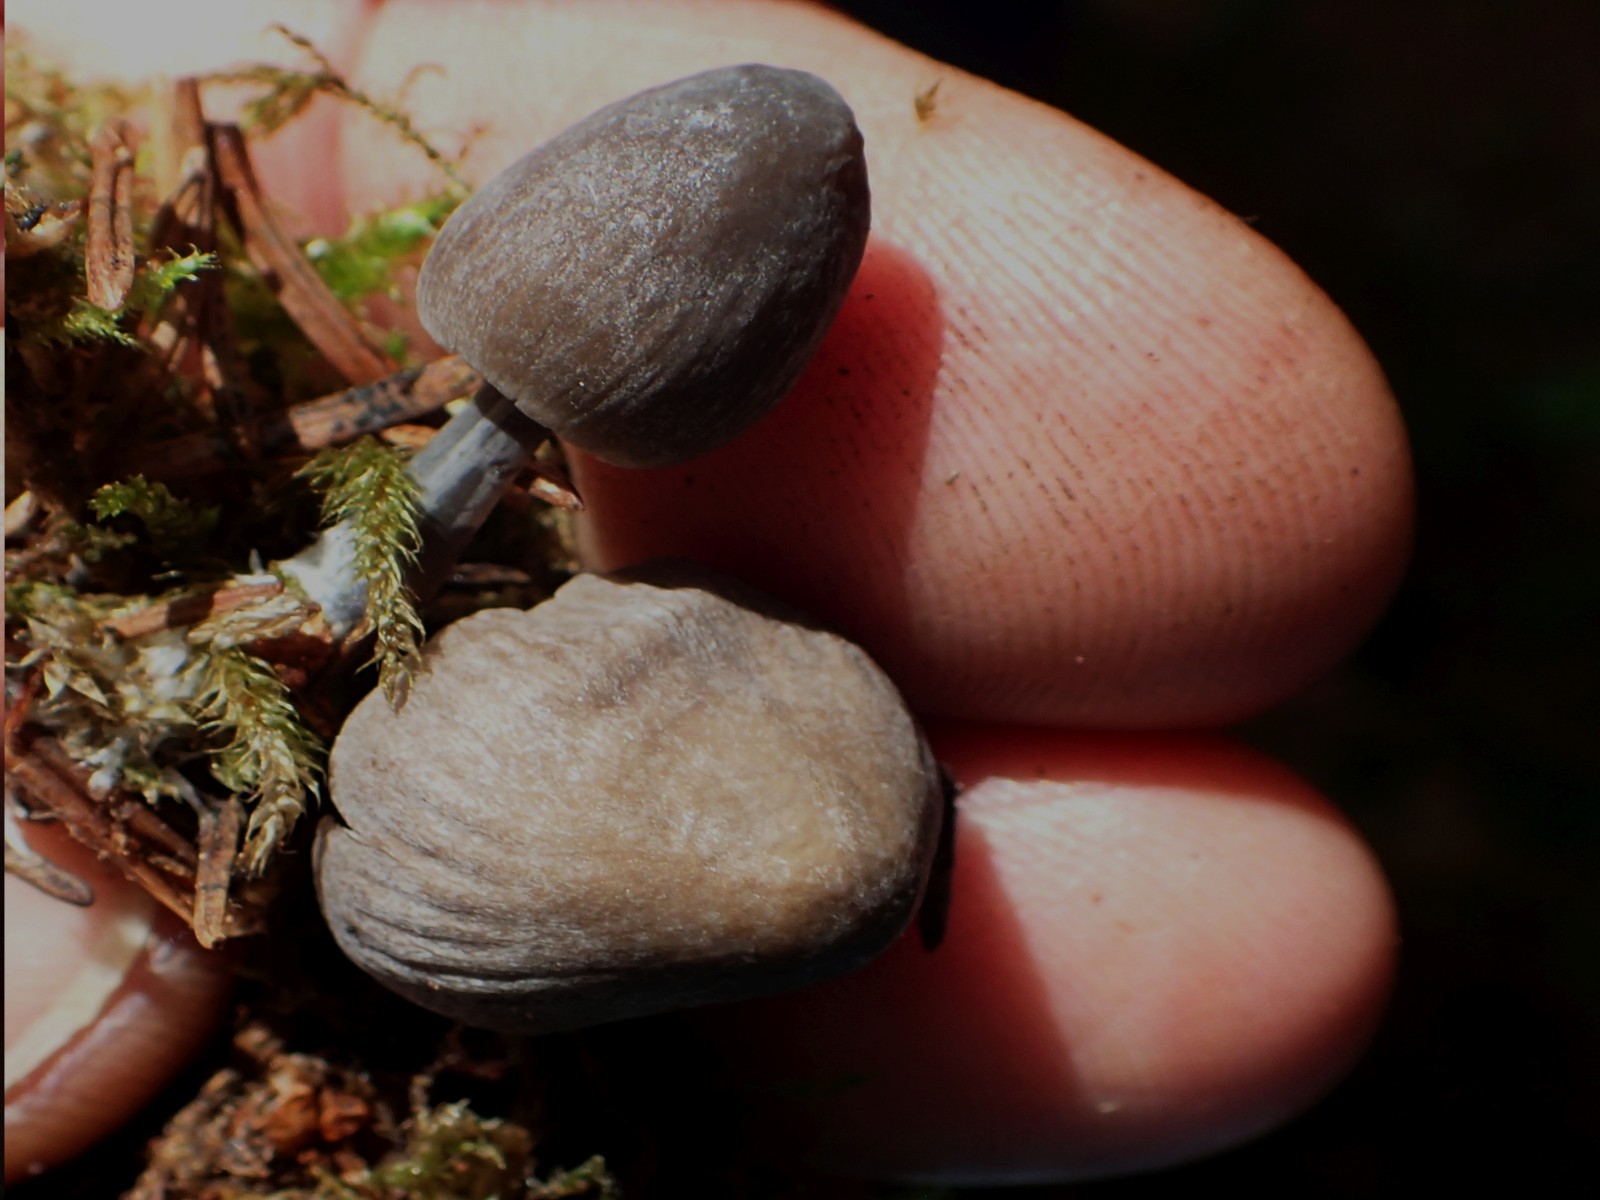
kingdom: Fungi
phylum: Basidiomycota
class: Agaricomycetes
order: Agaricales
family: Mycenaceae
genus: Mycena
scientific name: Mycena
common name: huesvamp
